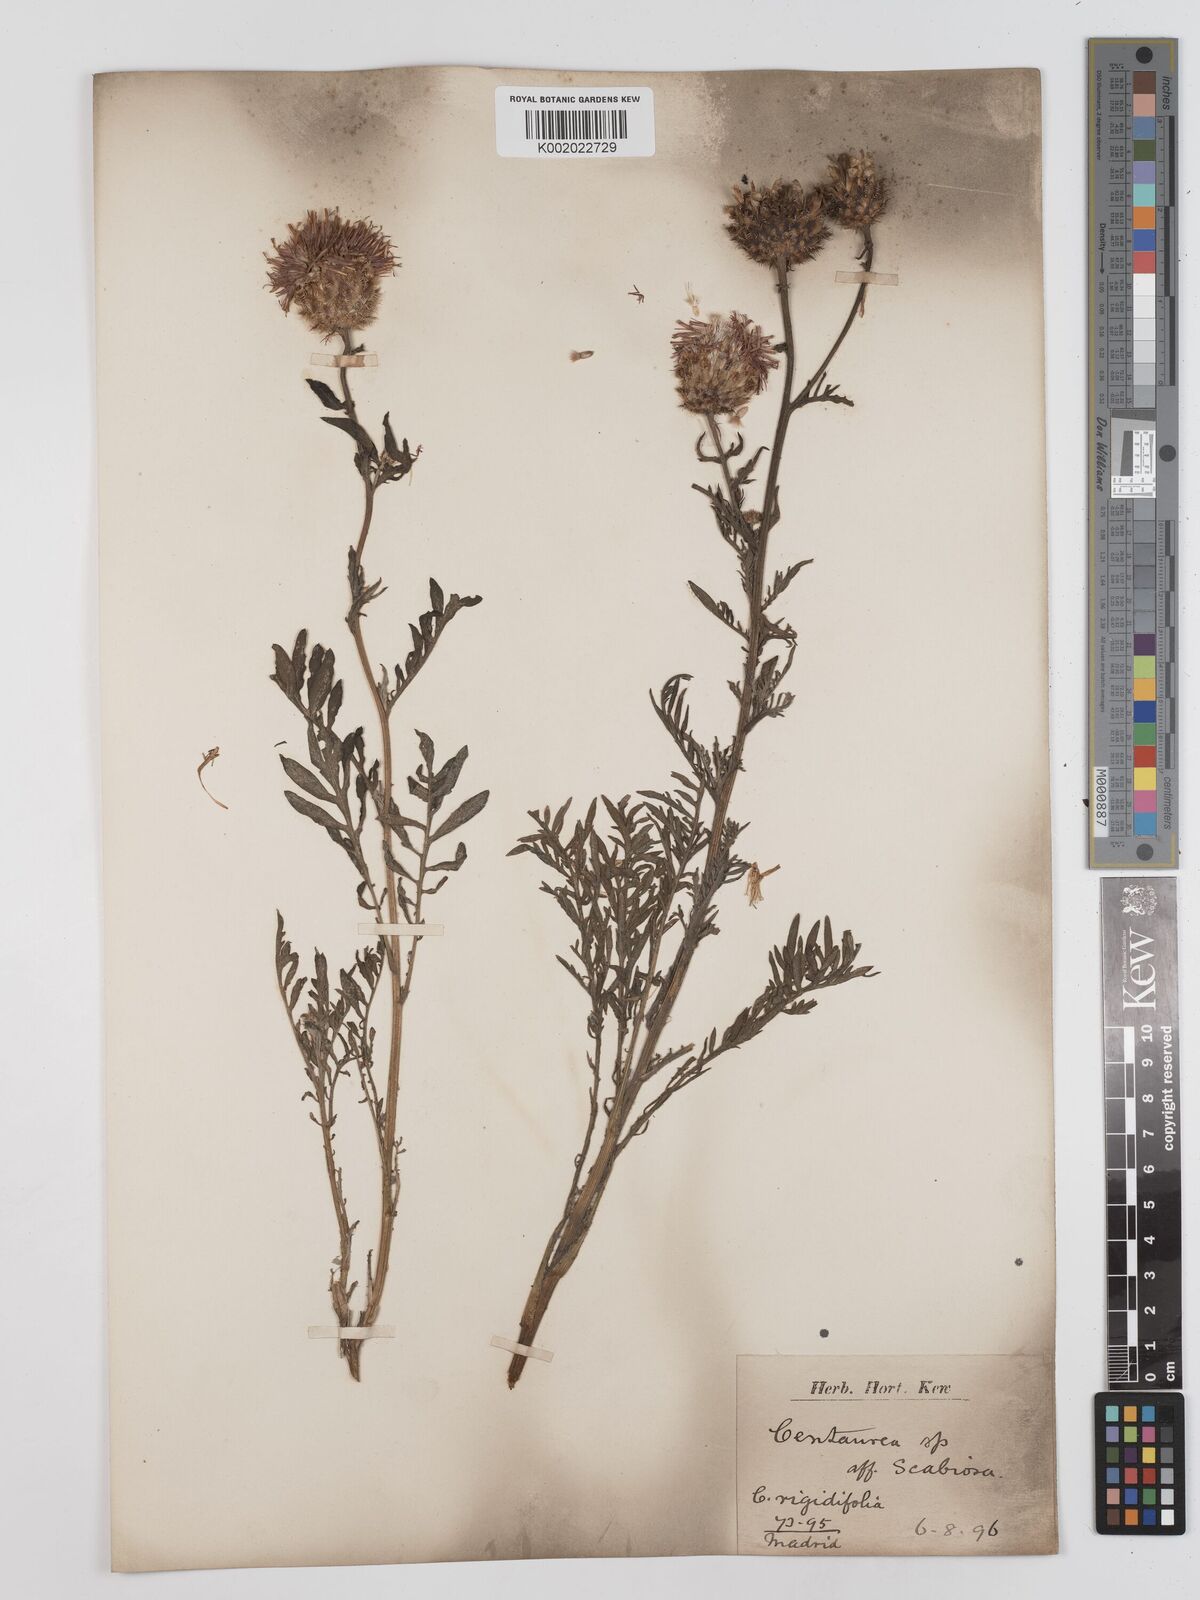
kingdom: Plantae
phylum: Tracheophyta
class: Magnoliopsida
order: Asterales
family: Asteraceae
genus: Centaurea
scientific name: Centaurea
